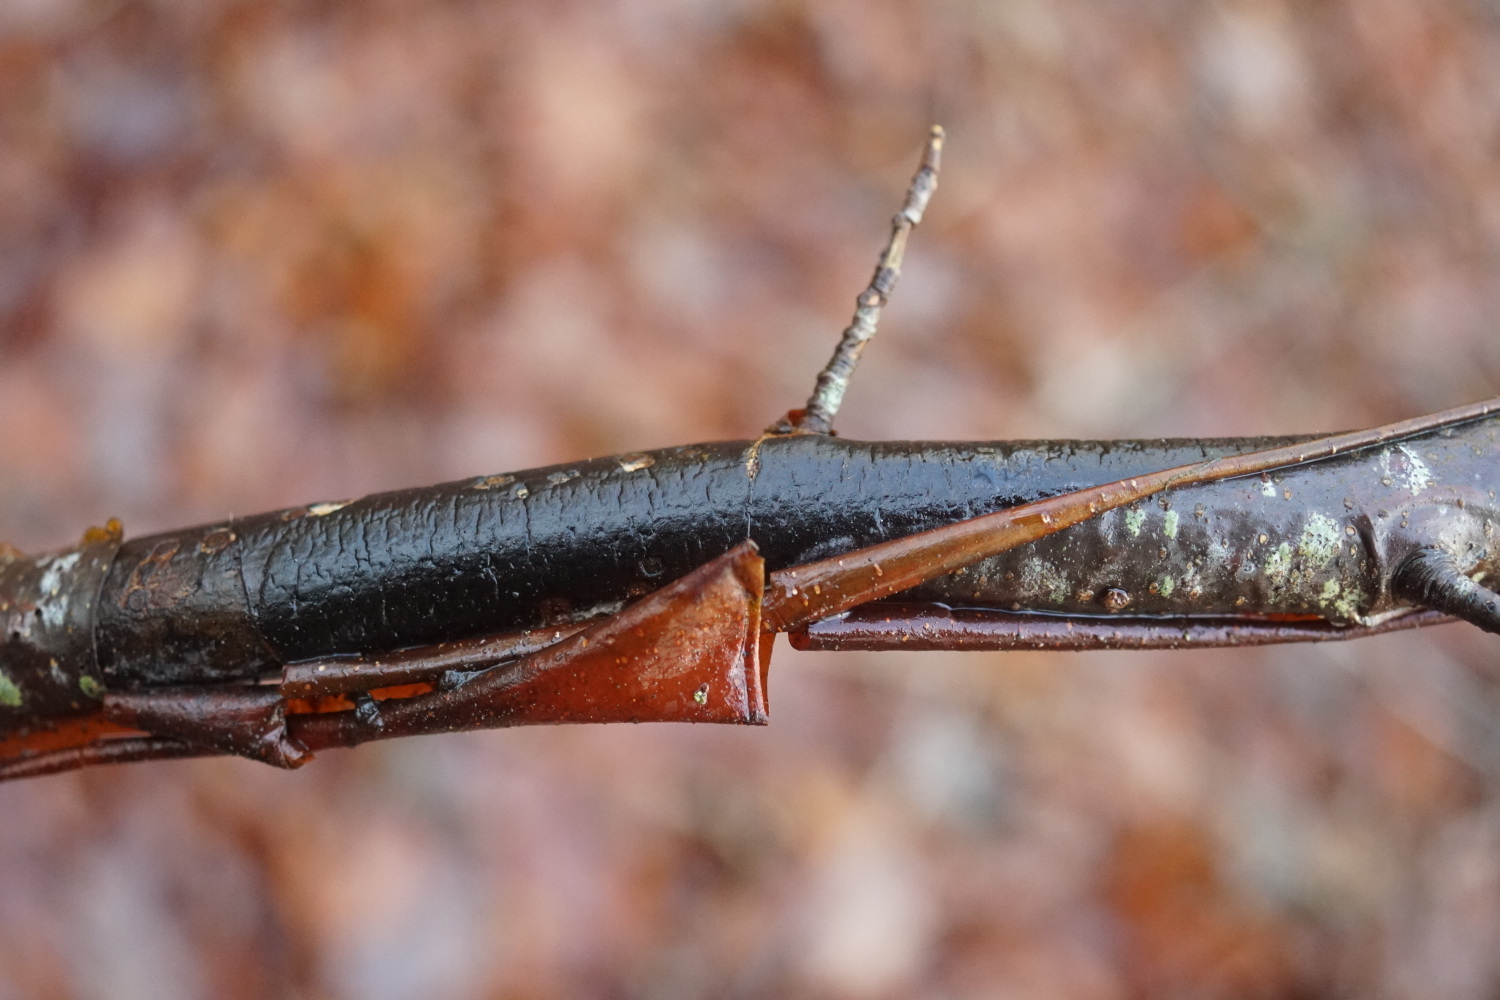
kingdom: Fungi
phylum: Ascomycota
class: Sordariomycetes
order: Xylariales
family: Diatrypaceae
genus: Diatrype
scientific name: Diatrype decorticata
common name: barksprænger-kulskorpe
